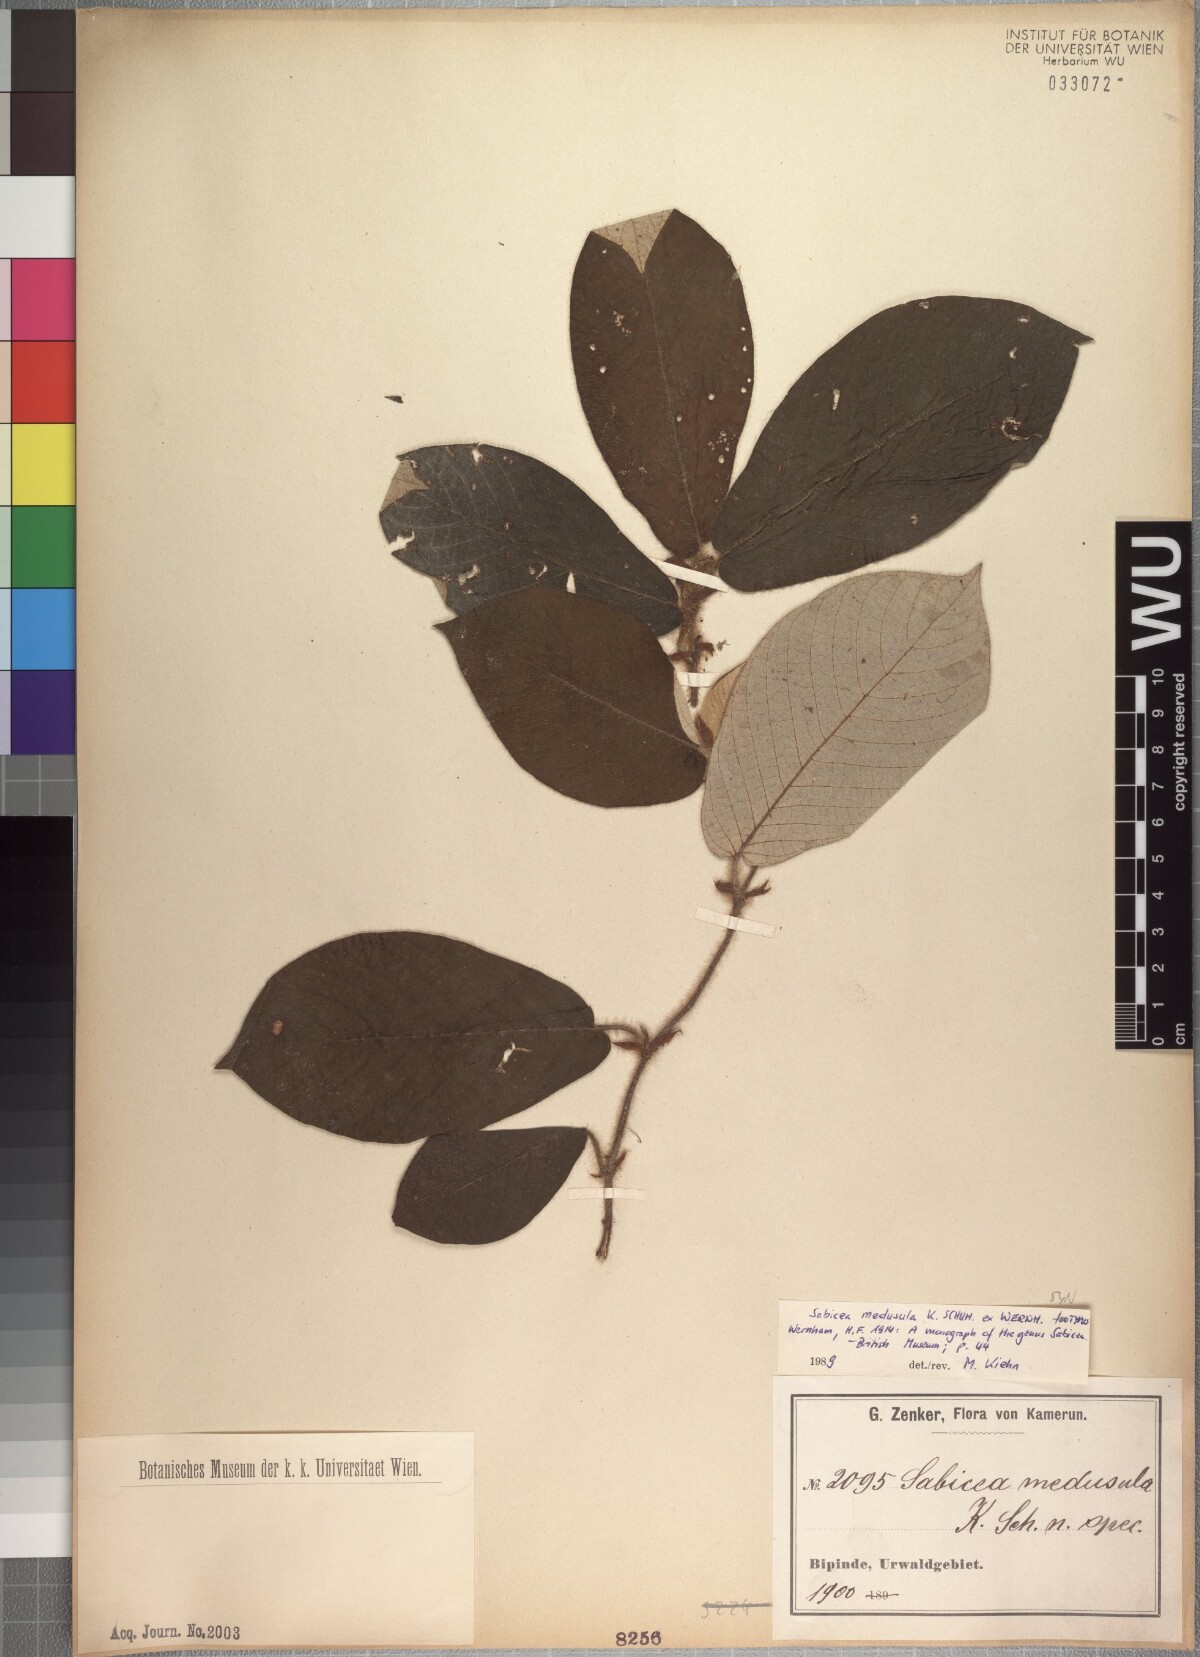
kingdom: Plantae
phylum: Tracheophyta
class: Magnoliopsida
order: Gentianales
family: Rubiaceae
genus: Sabicea
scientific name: Sabicea medusula
